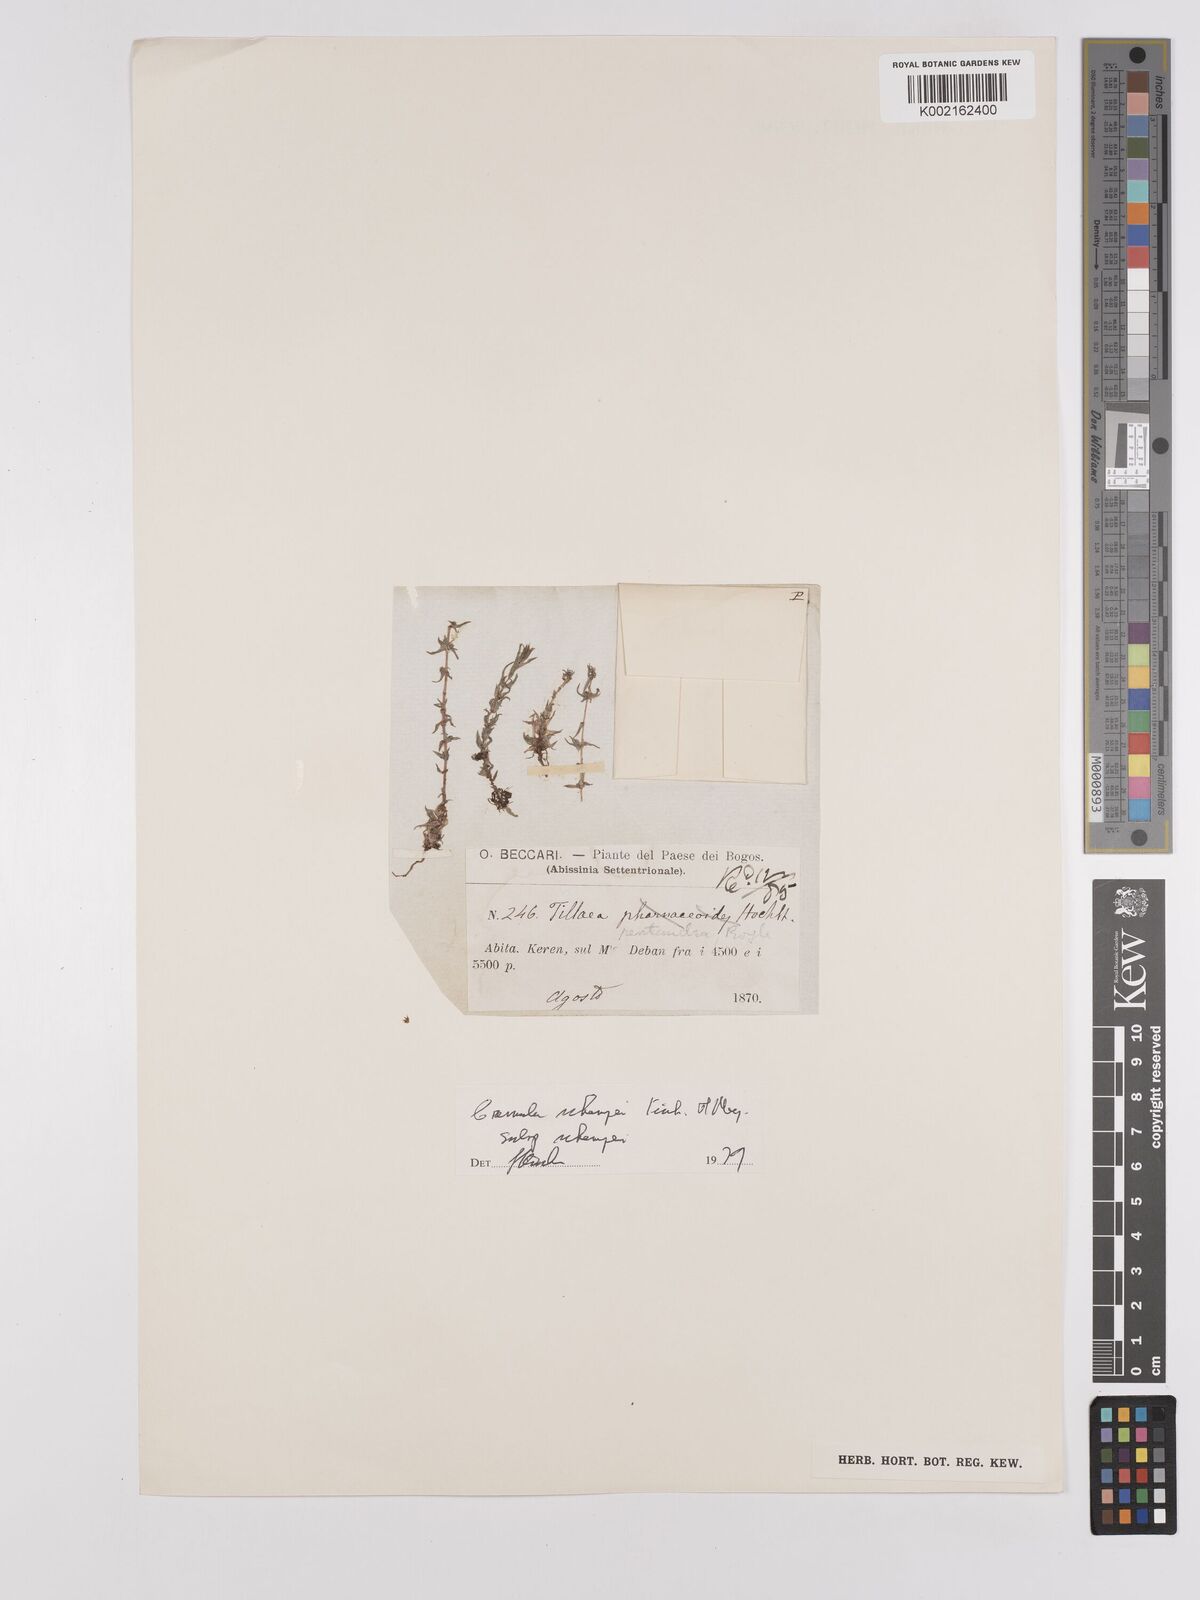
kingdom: Plantae
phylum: Tracheophyta
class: Magnoliopsida
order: Saxifragales
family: Crassulaceae
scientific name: Crassulaceae
